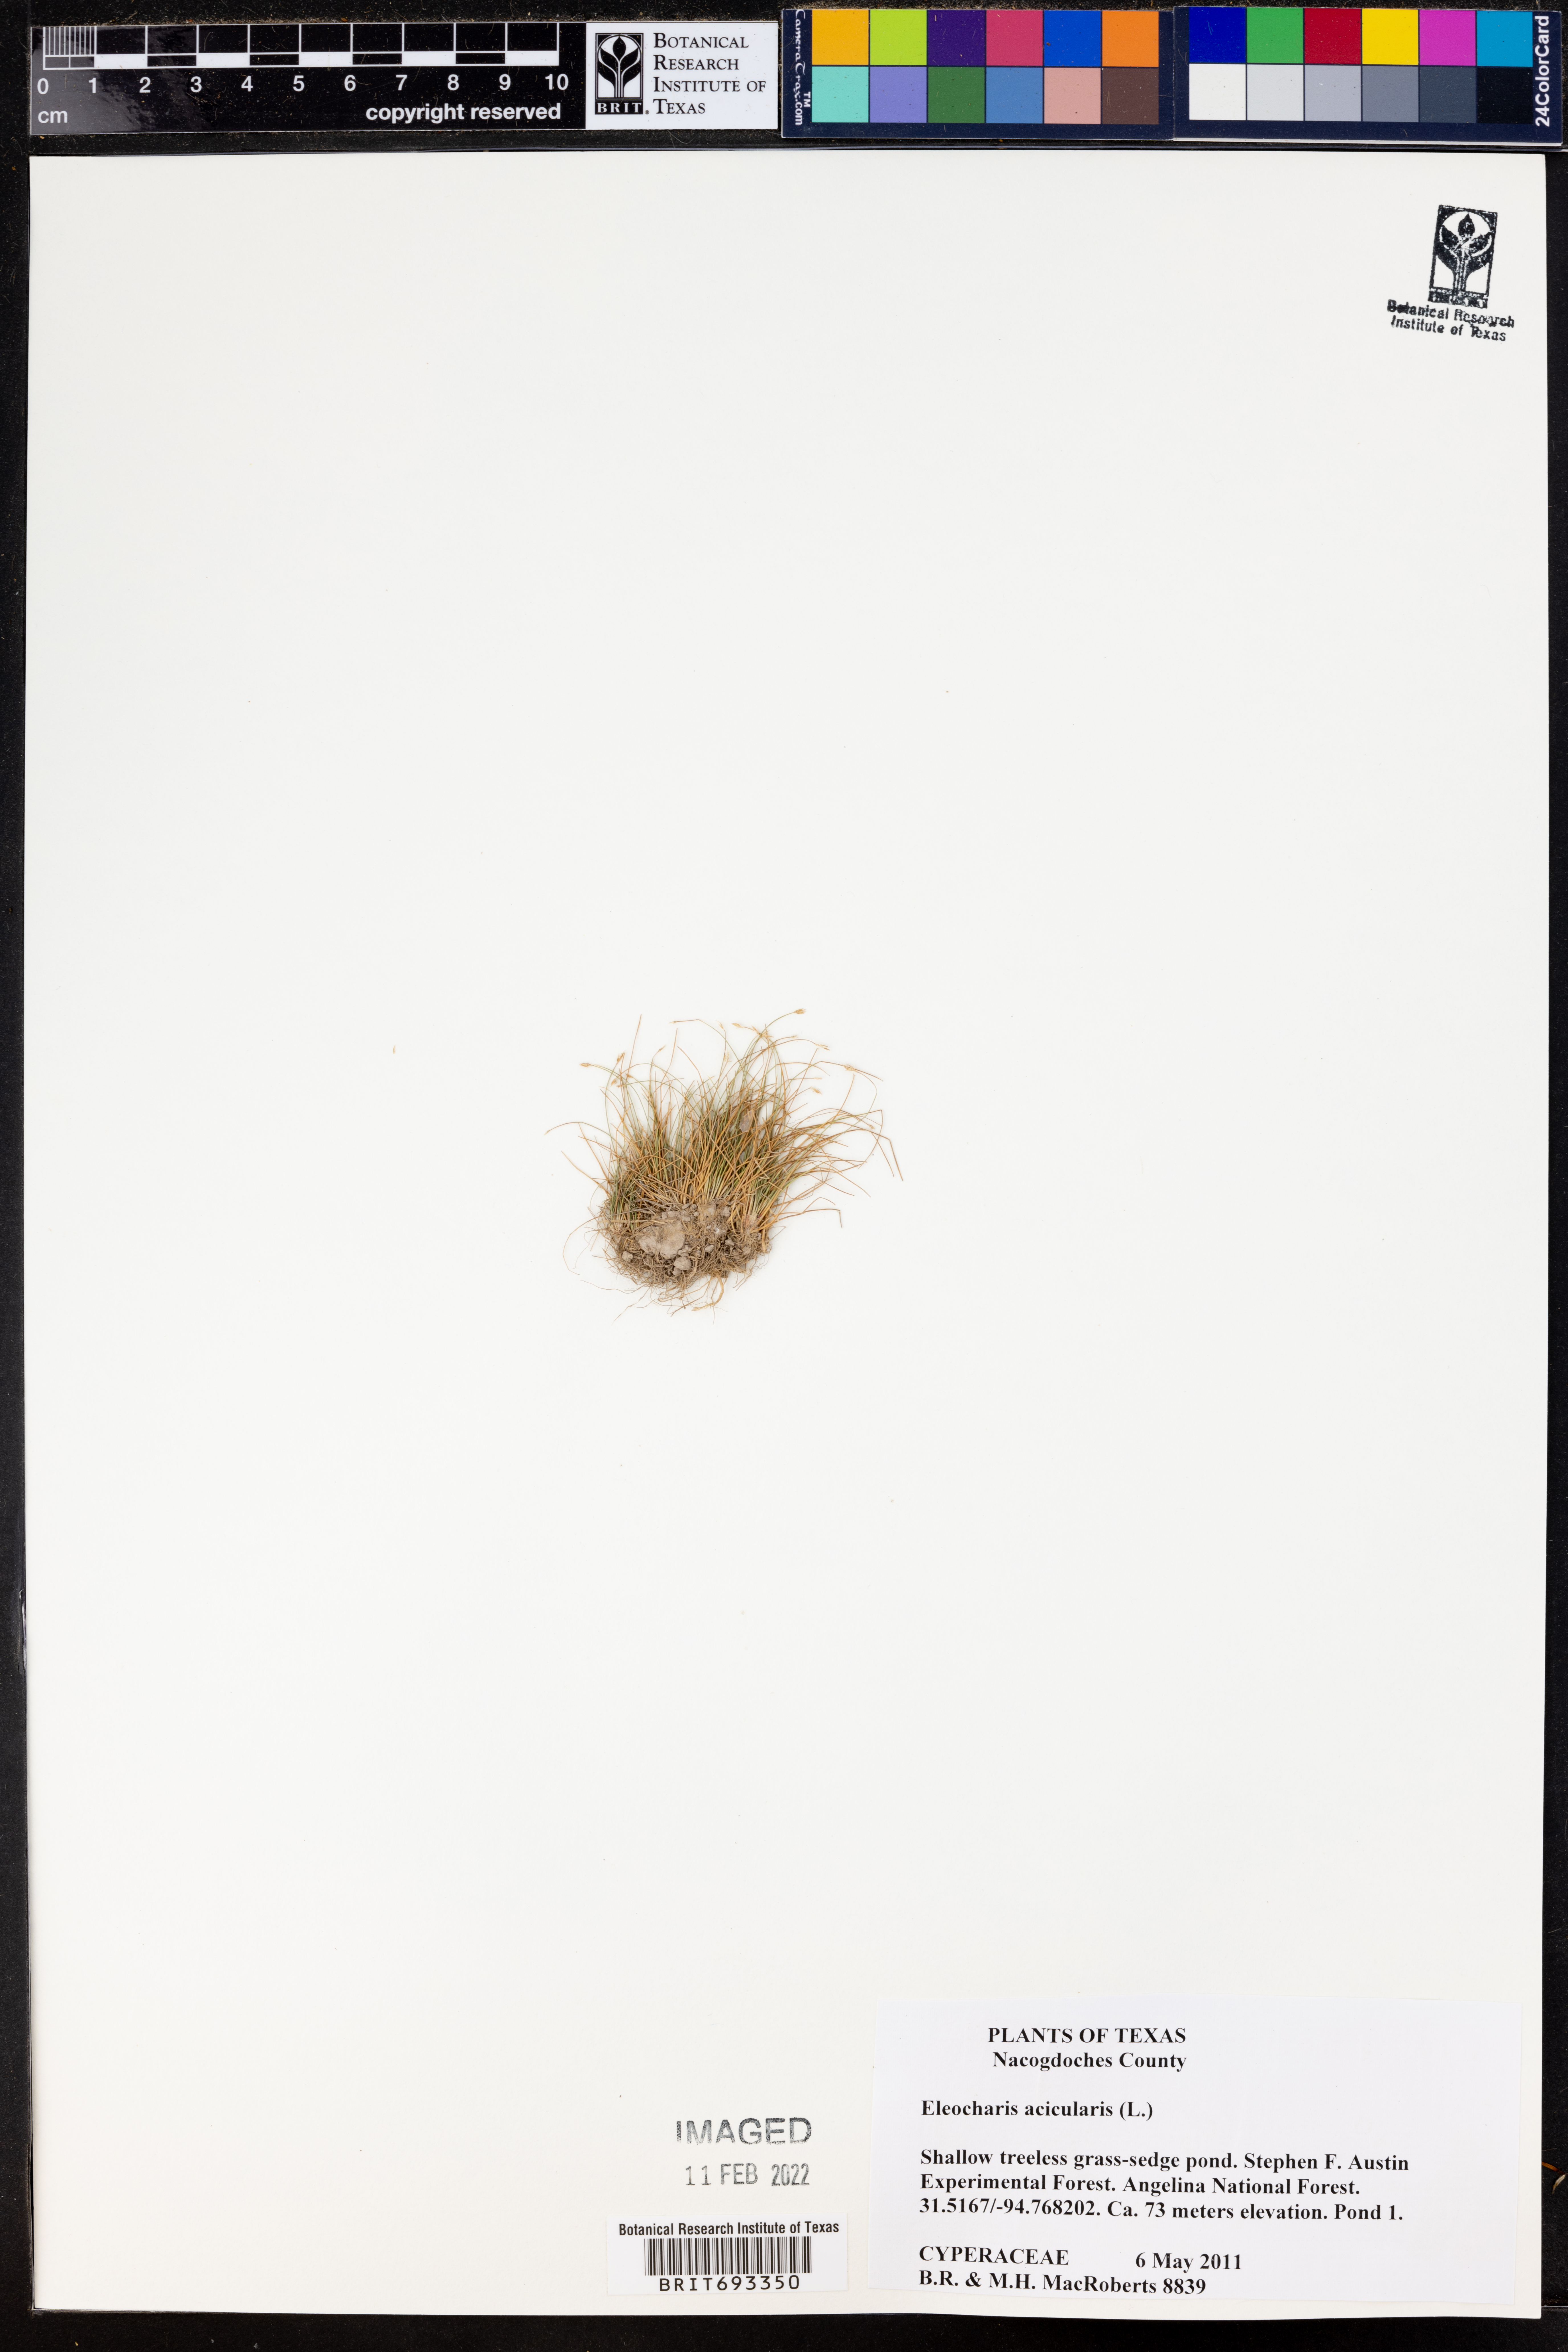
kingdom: Plantae
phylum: Tracheophyta
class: Liliopsida
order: Poales
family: Cyperaceae
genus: Eleocharis
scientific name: Eleocharis acicularis
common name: Needle spike-rush
